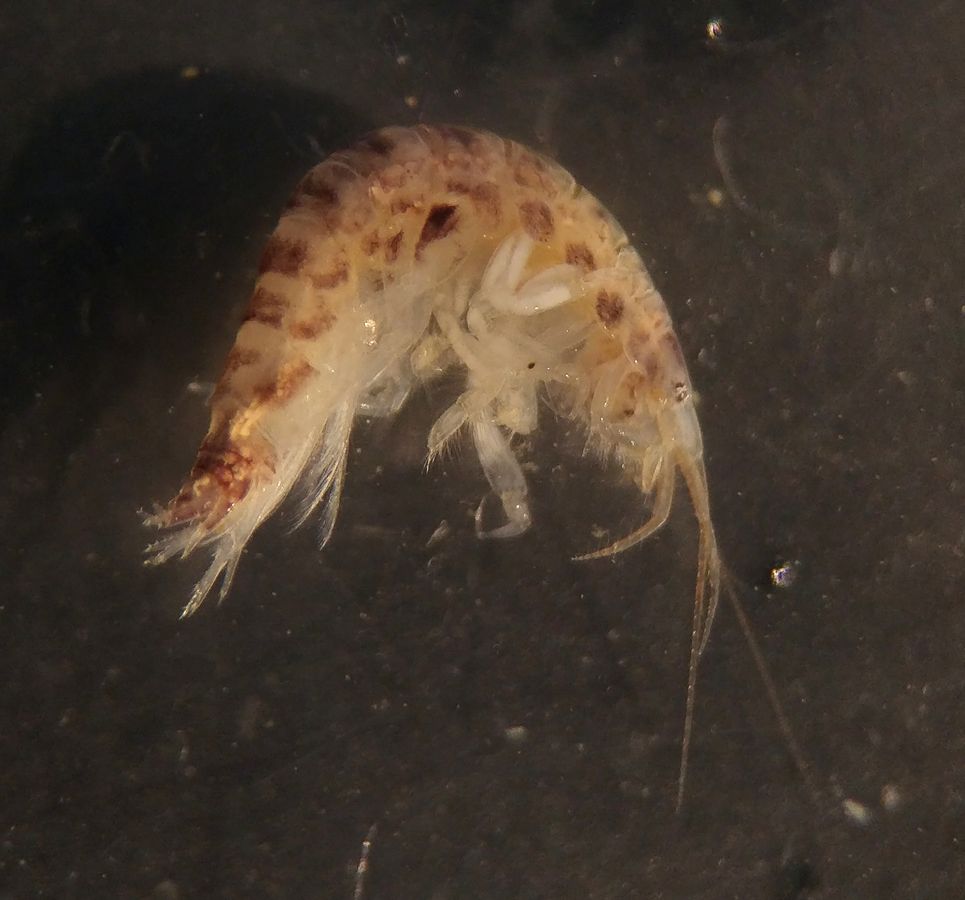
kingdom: Animalia
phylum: Arthropoda
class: Malacostraca
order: Amphipoda
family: Corophiidae
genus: Crassicorophium
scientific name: Crassicorophium bonellii
